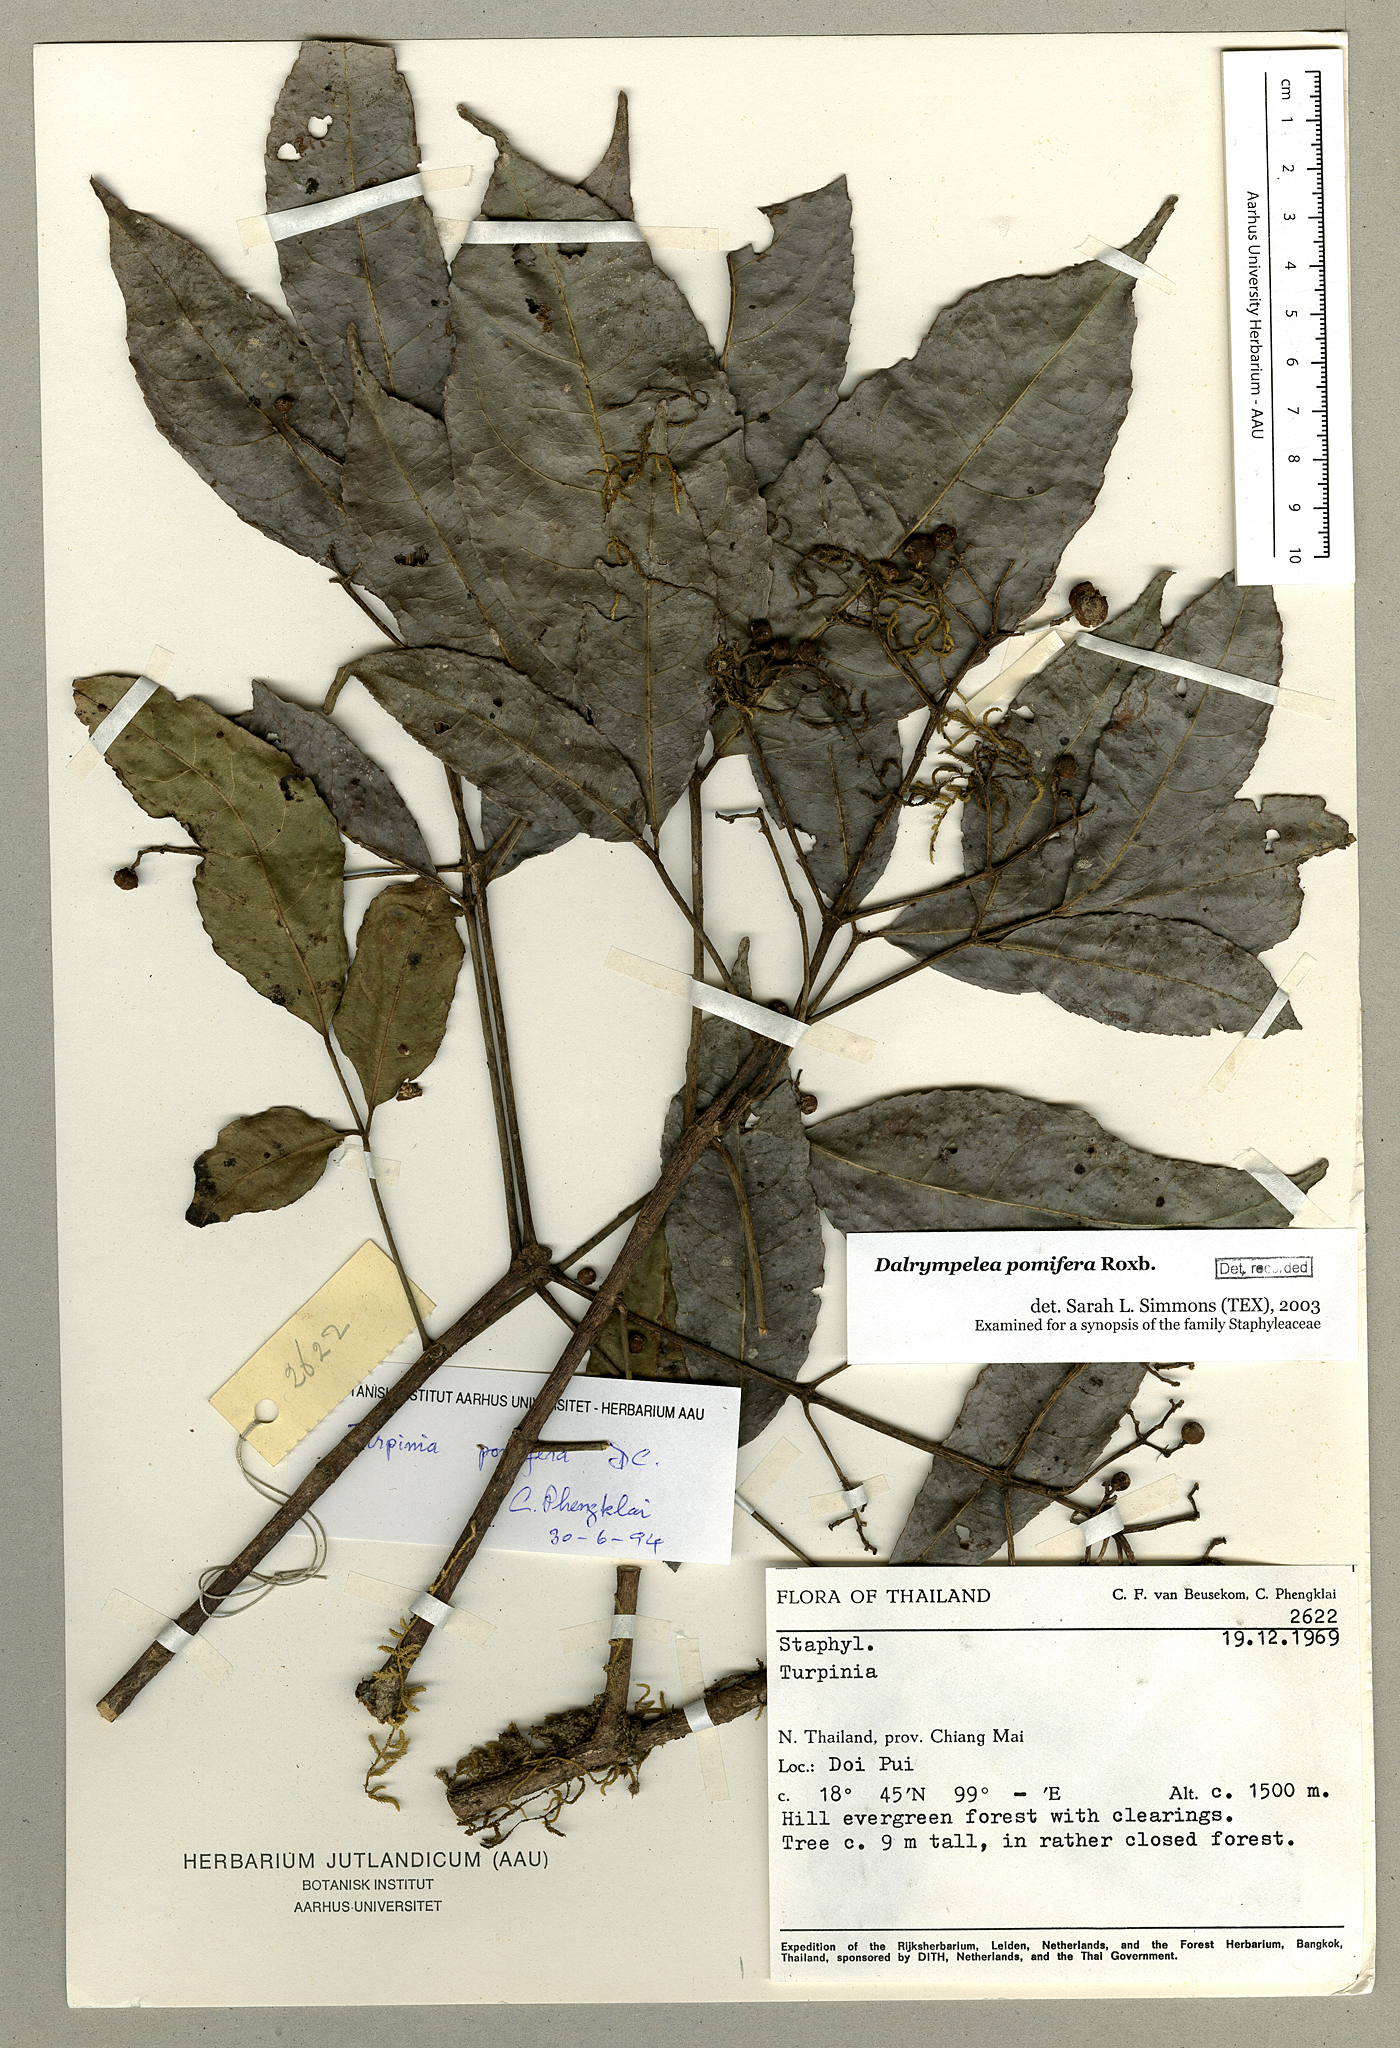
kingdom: Plantae
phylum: Tracheophyta
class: Magnoliopsida
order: Crossosomatales
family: Staphyleaceae
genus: Turpinia
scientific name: Turpinia cochinchinensis
